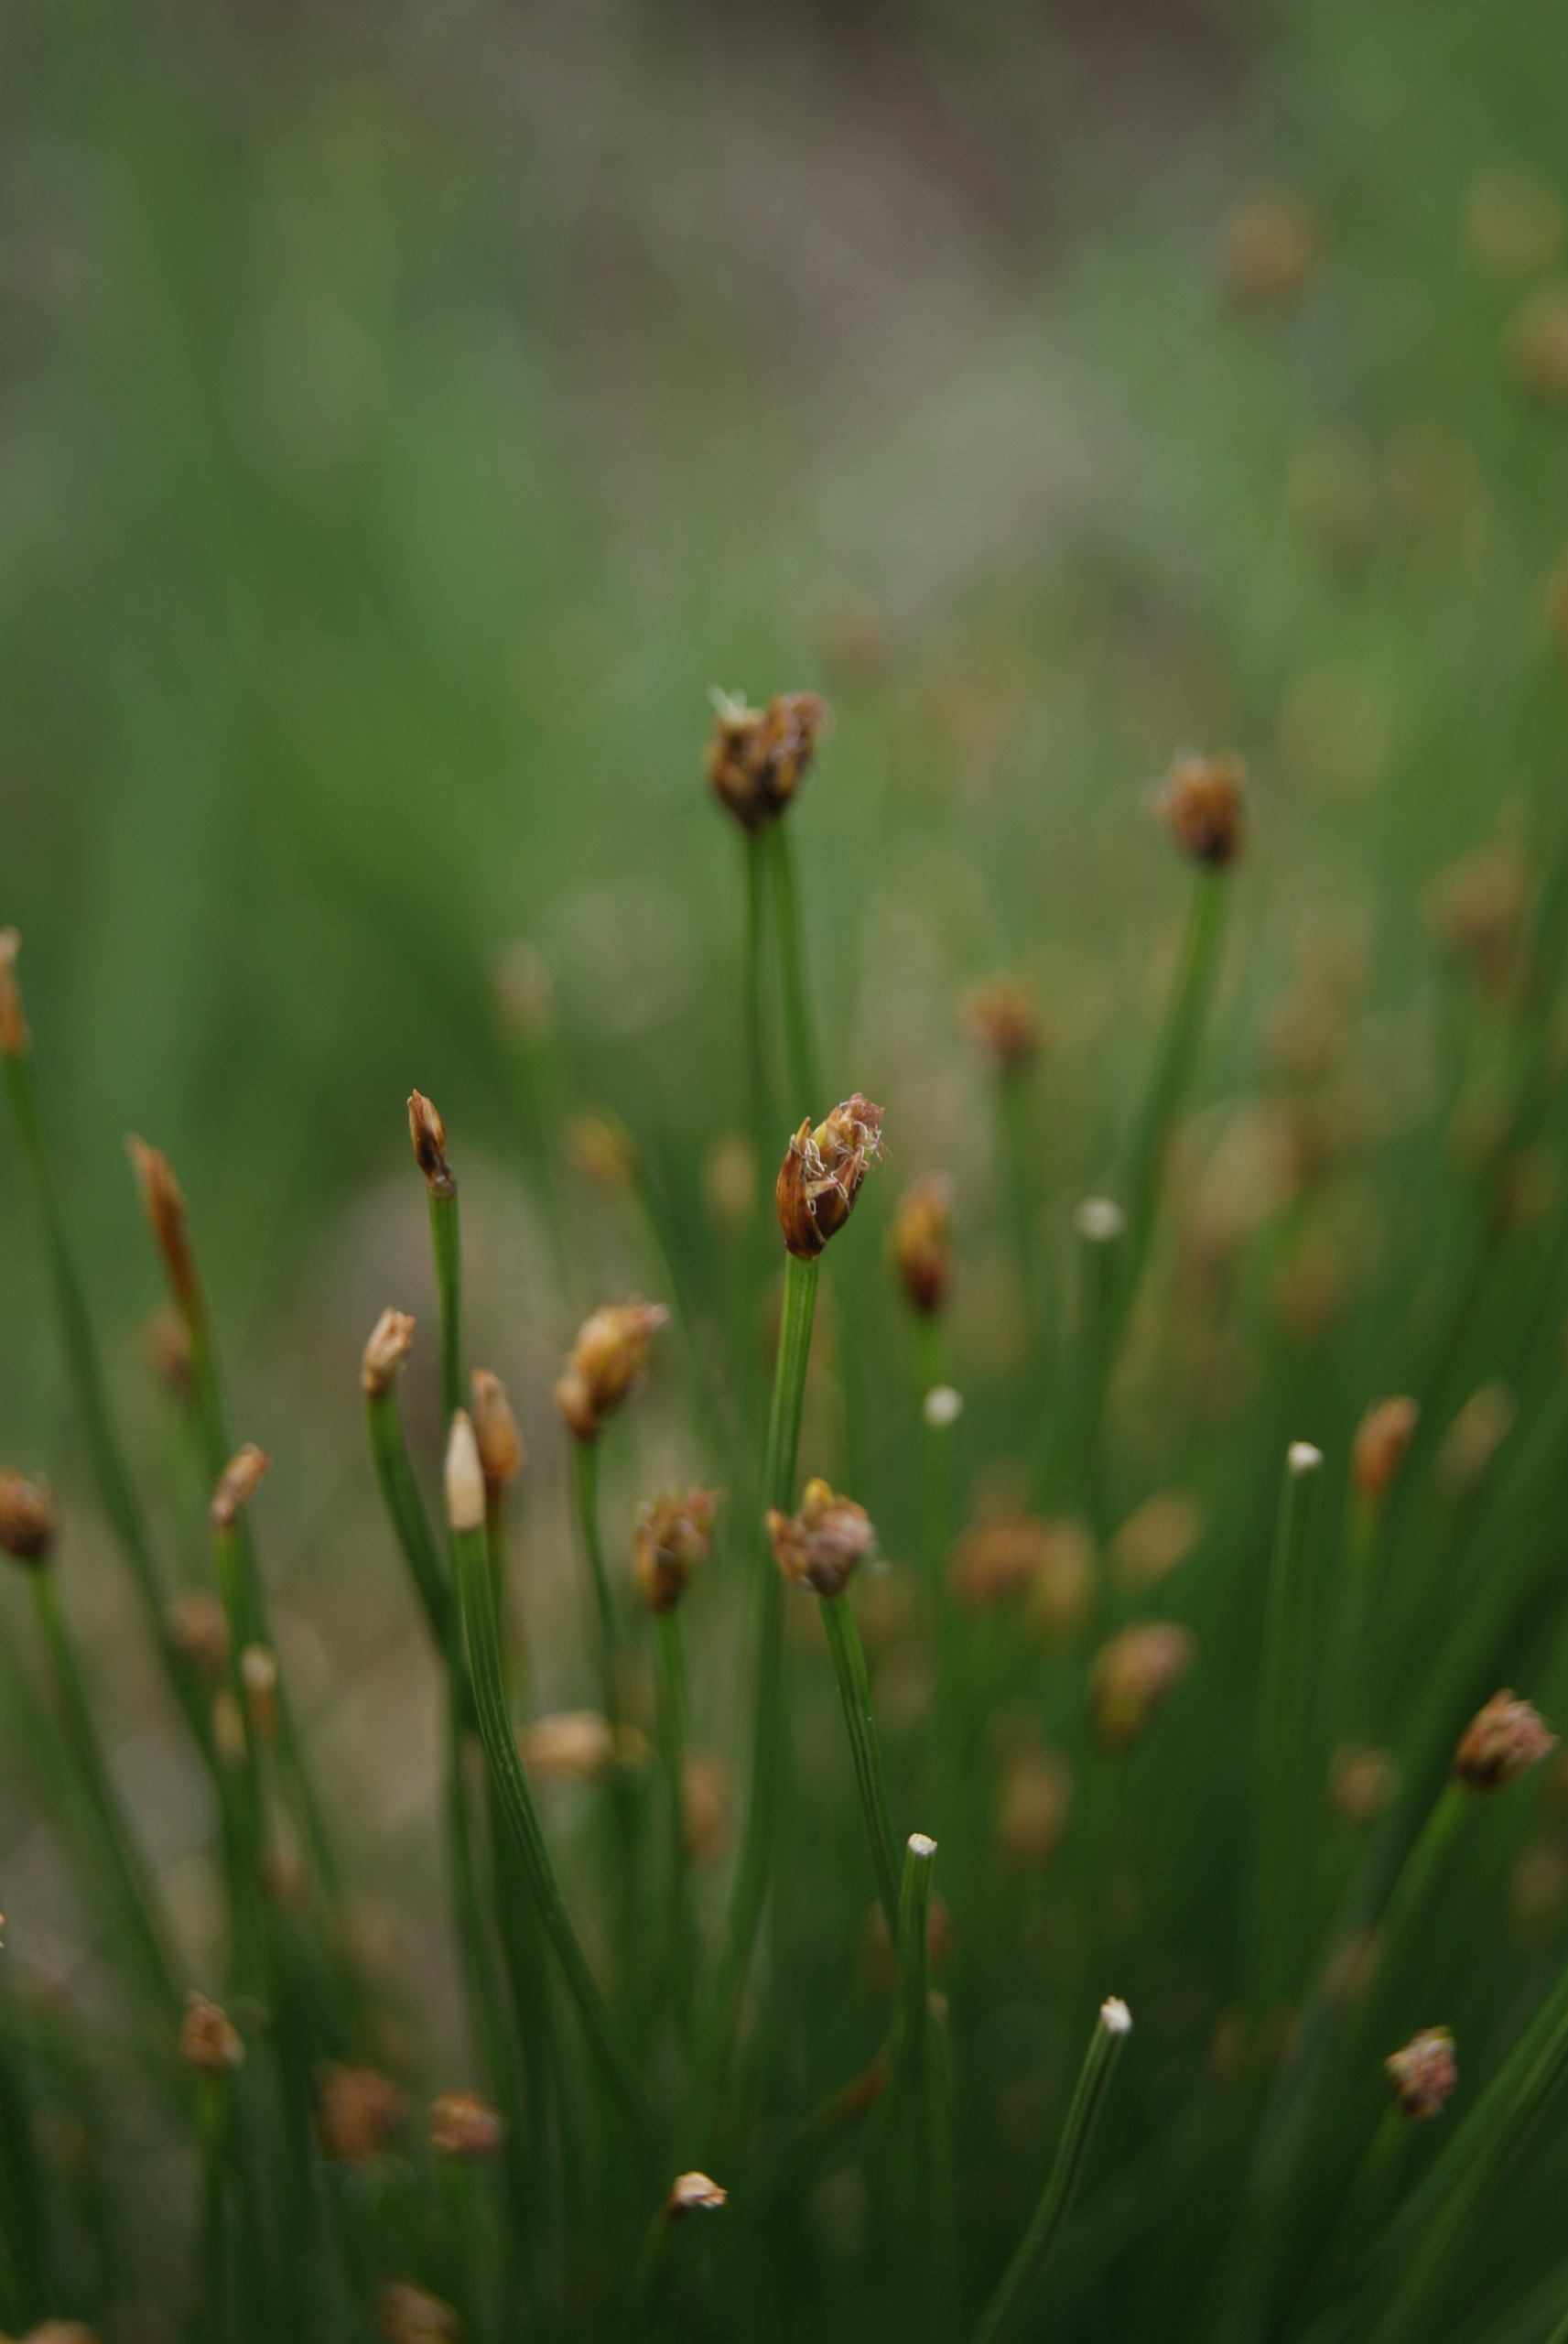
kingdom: Plantae
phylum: Tracheophyta
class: Liliopsida
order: Poales
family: Cyperaceae
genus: Trichophorum
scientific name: Trichophorum cespitosum
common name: Tuekogleaks
